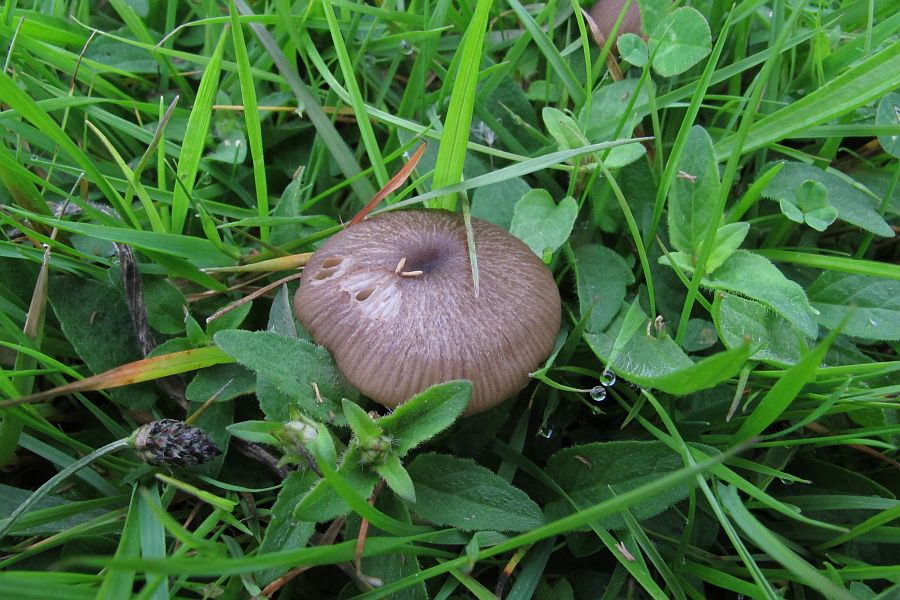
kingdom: Fungi
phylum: Basidiomycota
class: Agaricomycetes
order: Agaricales
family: Entolomataceae
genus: Entoloma
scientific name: Entoloma asprellum
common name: ru rødblad
